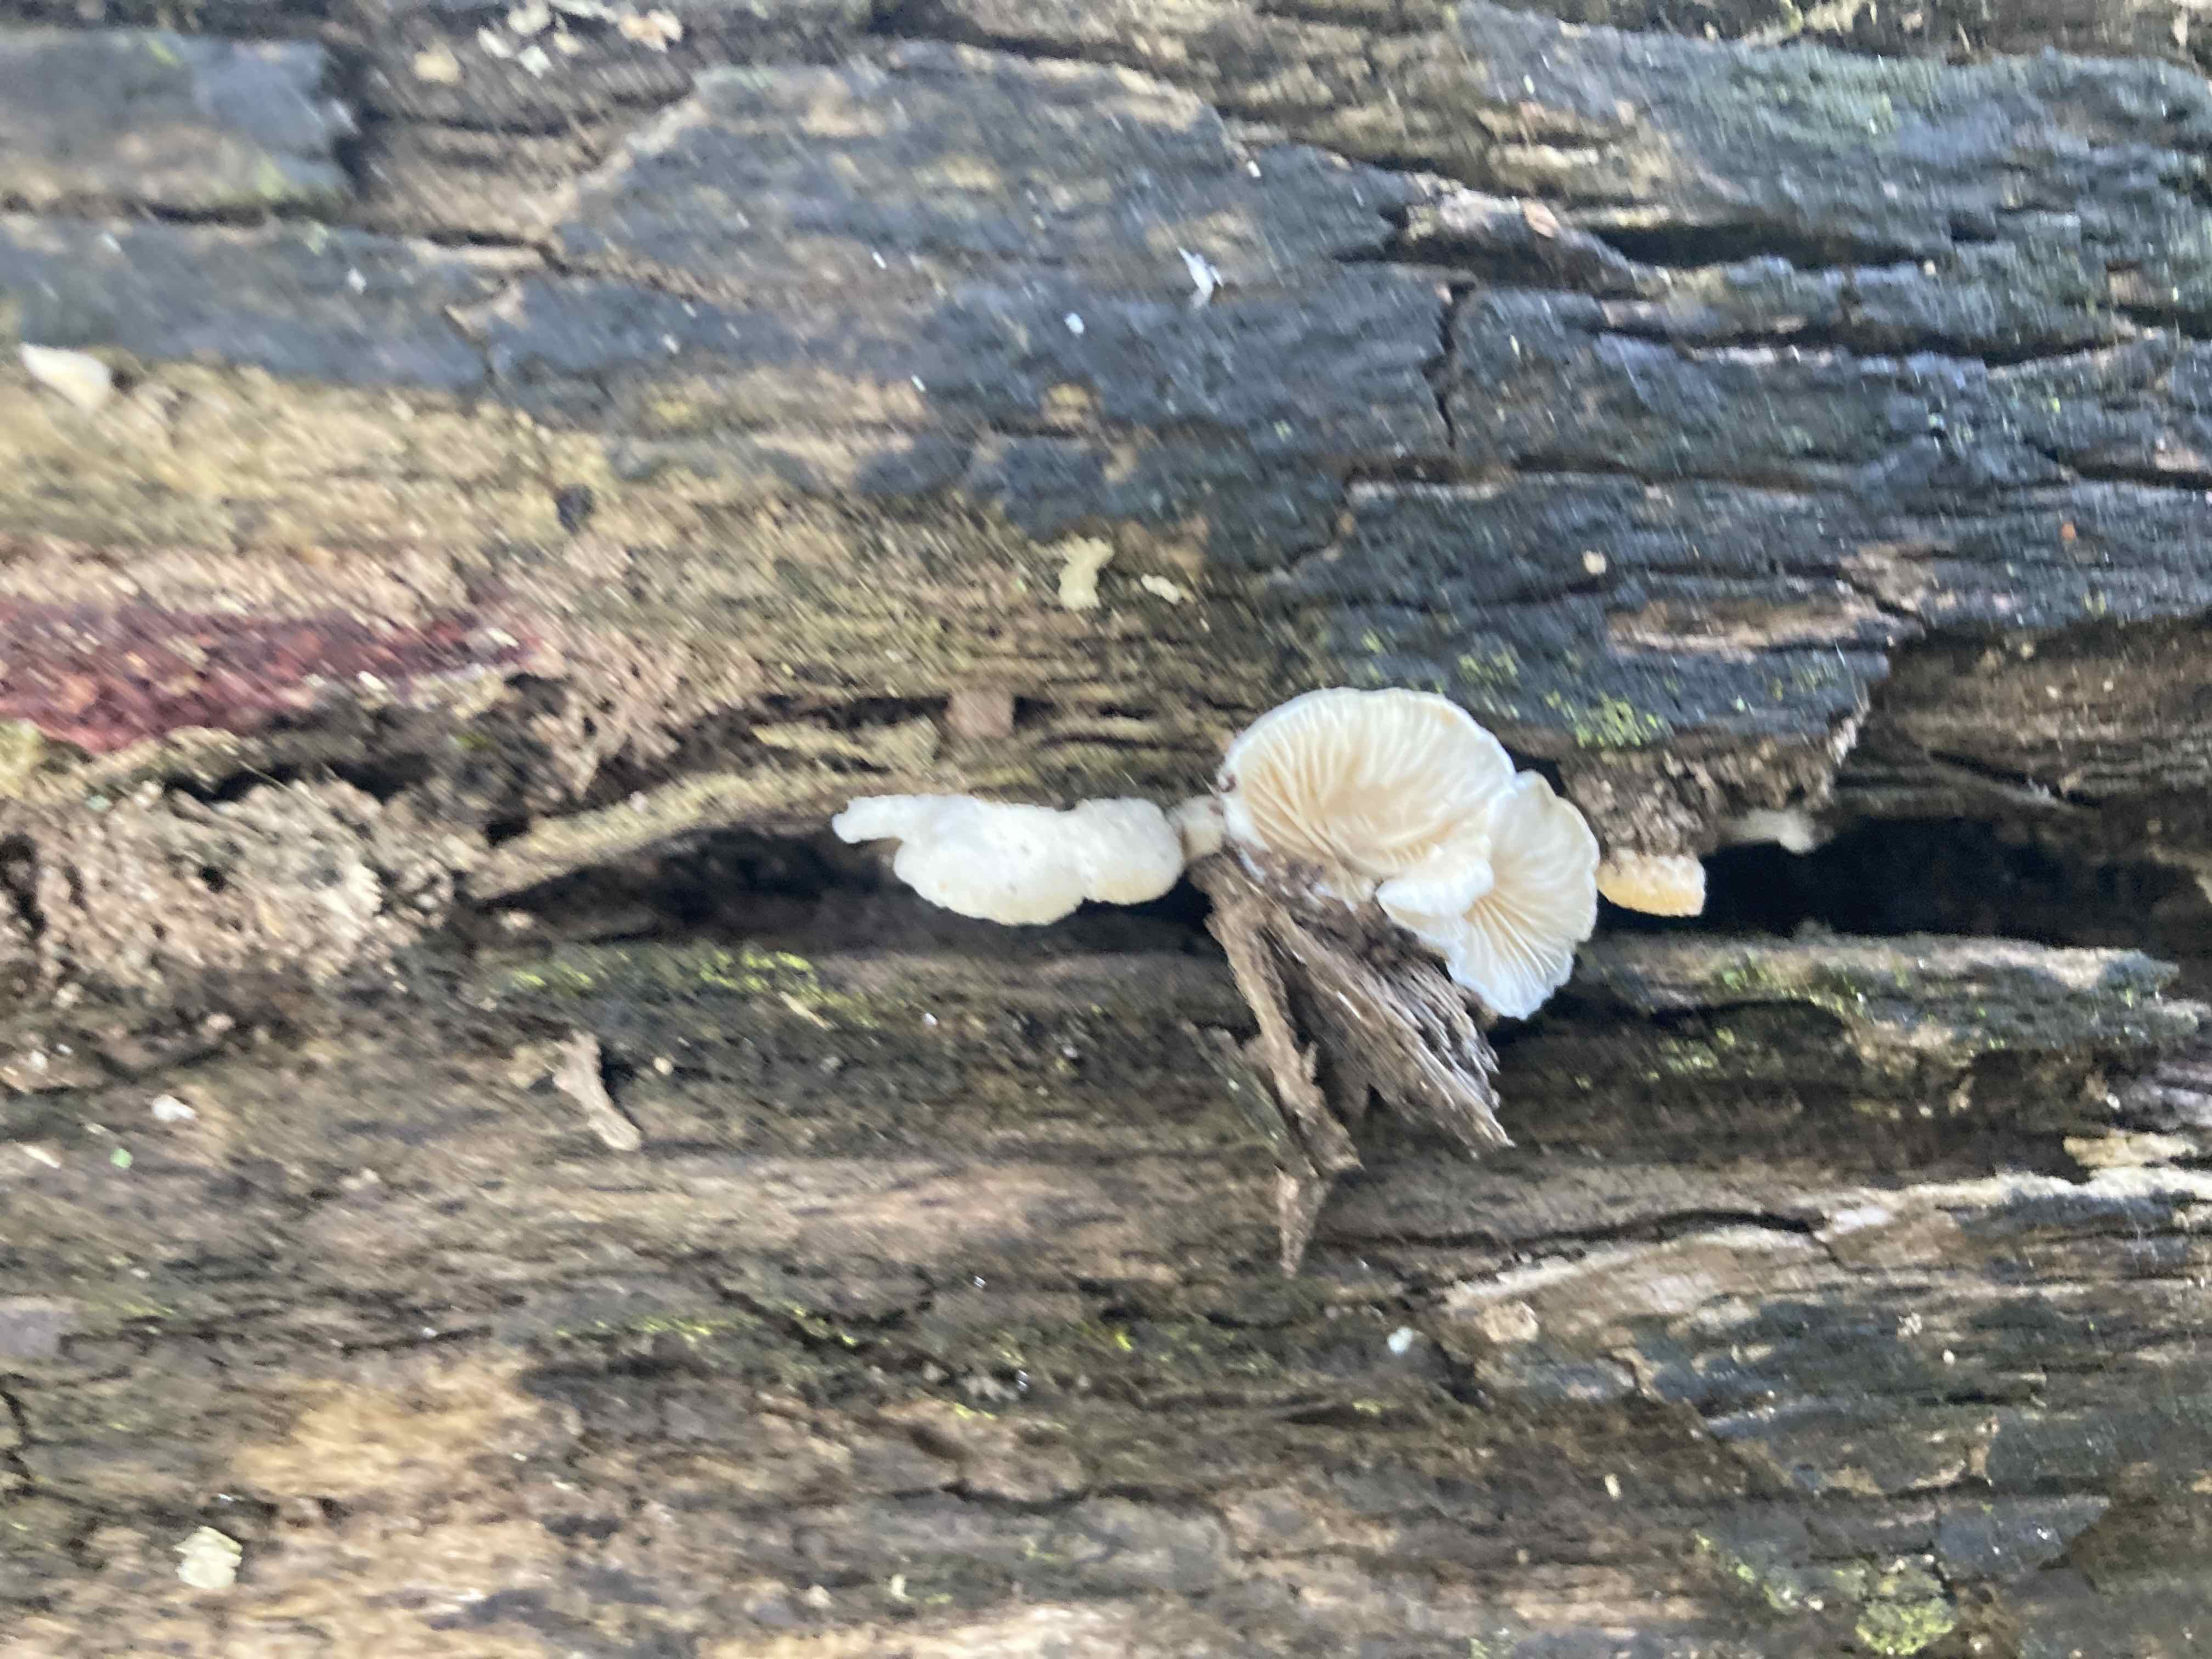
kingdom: Fungi
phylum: Basidiomycota
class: Agaricomycetes
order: Agaricales
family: Entolomataceae
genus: Clitopilus
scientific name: Clitopilus hobsonii
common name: Miller's oysterling
